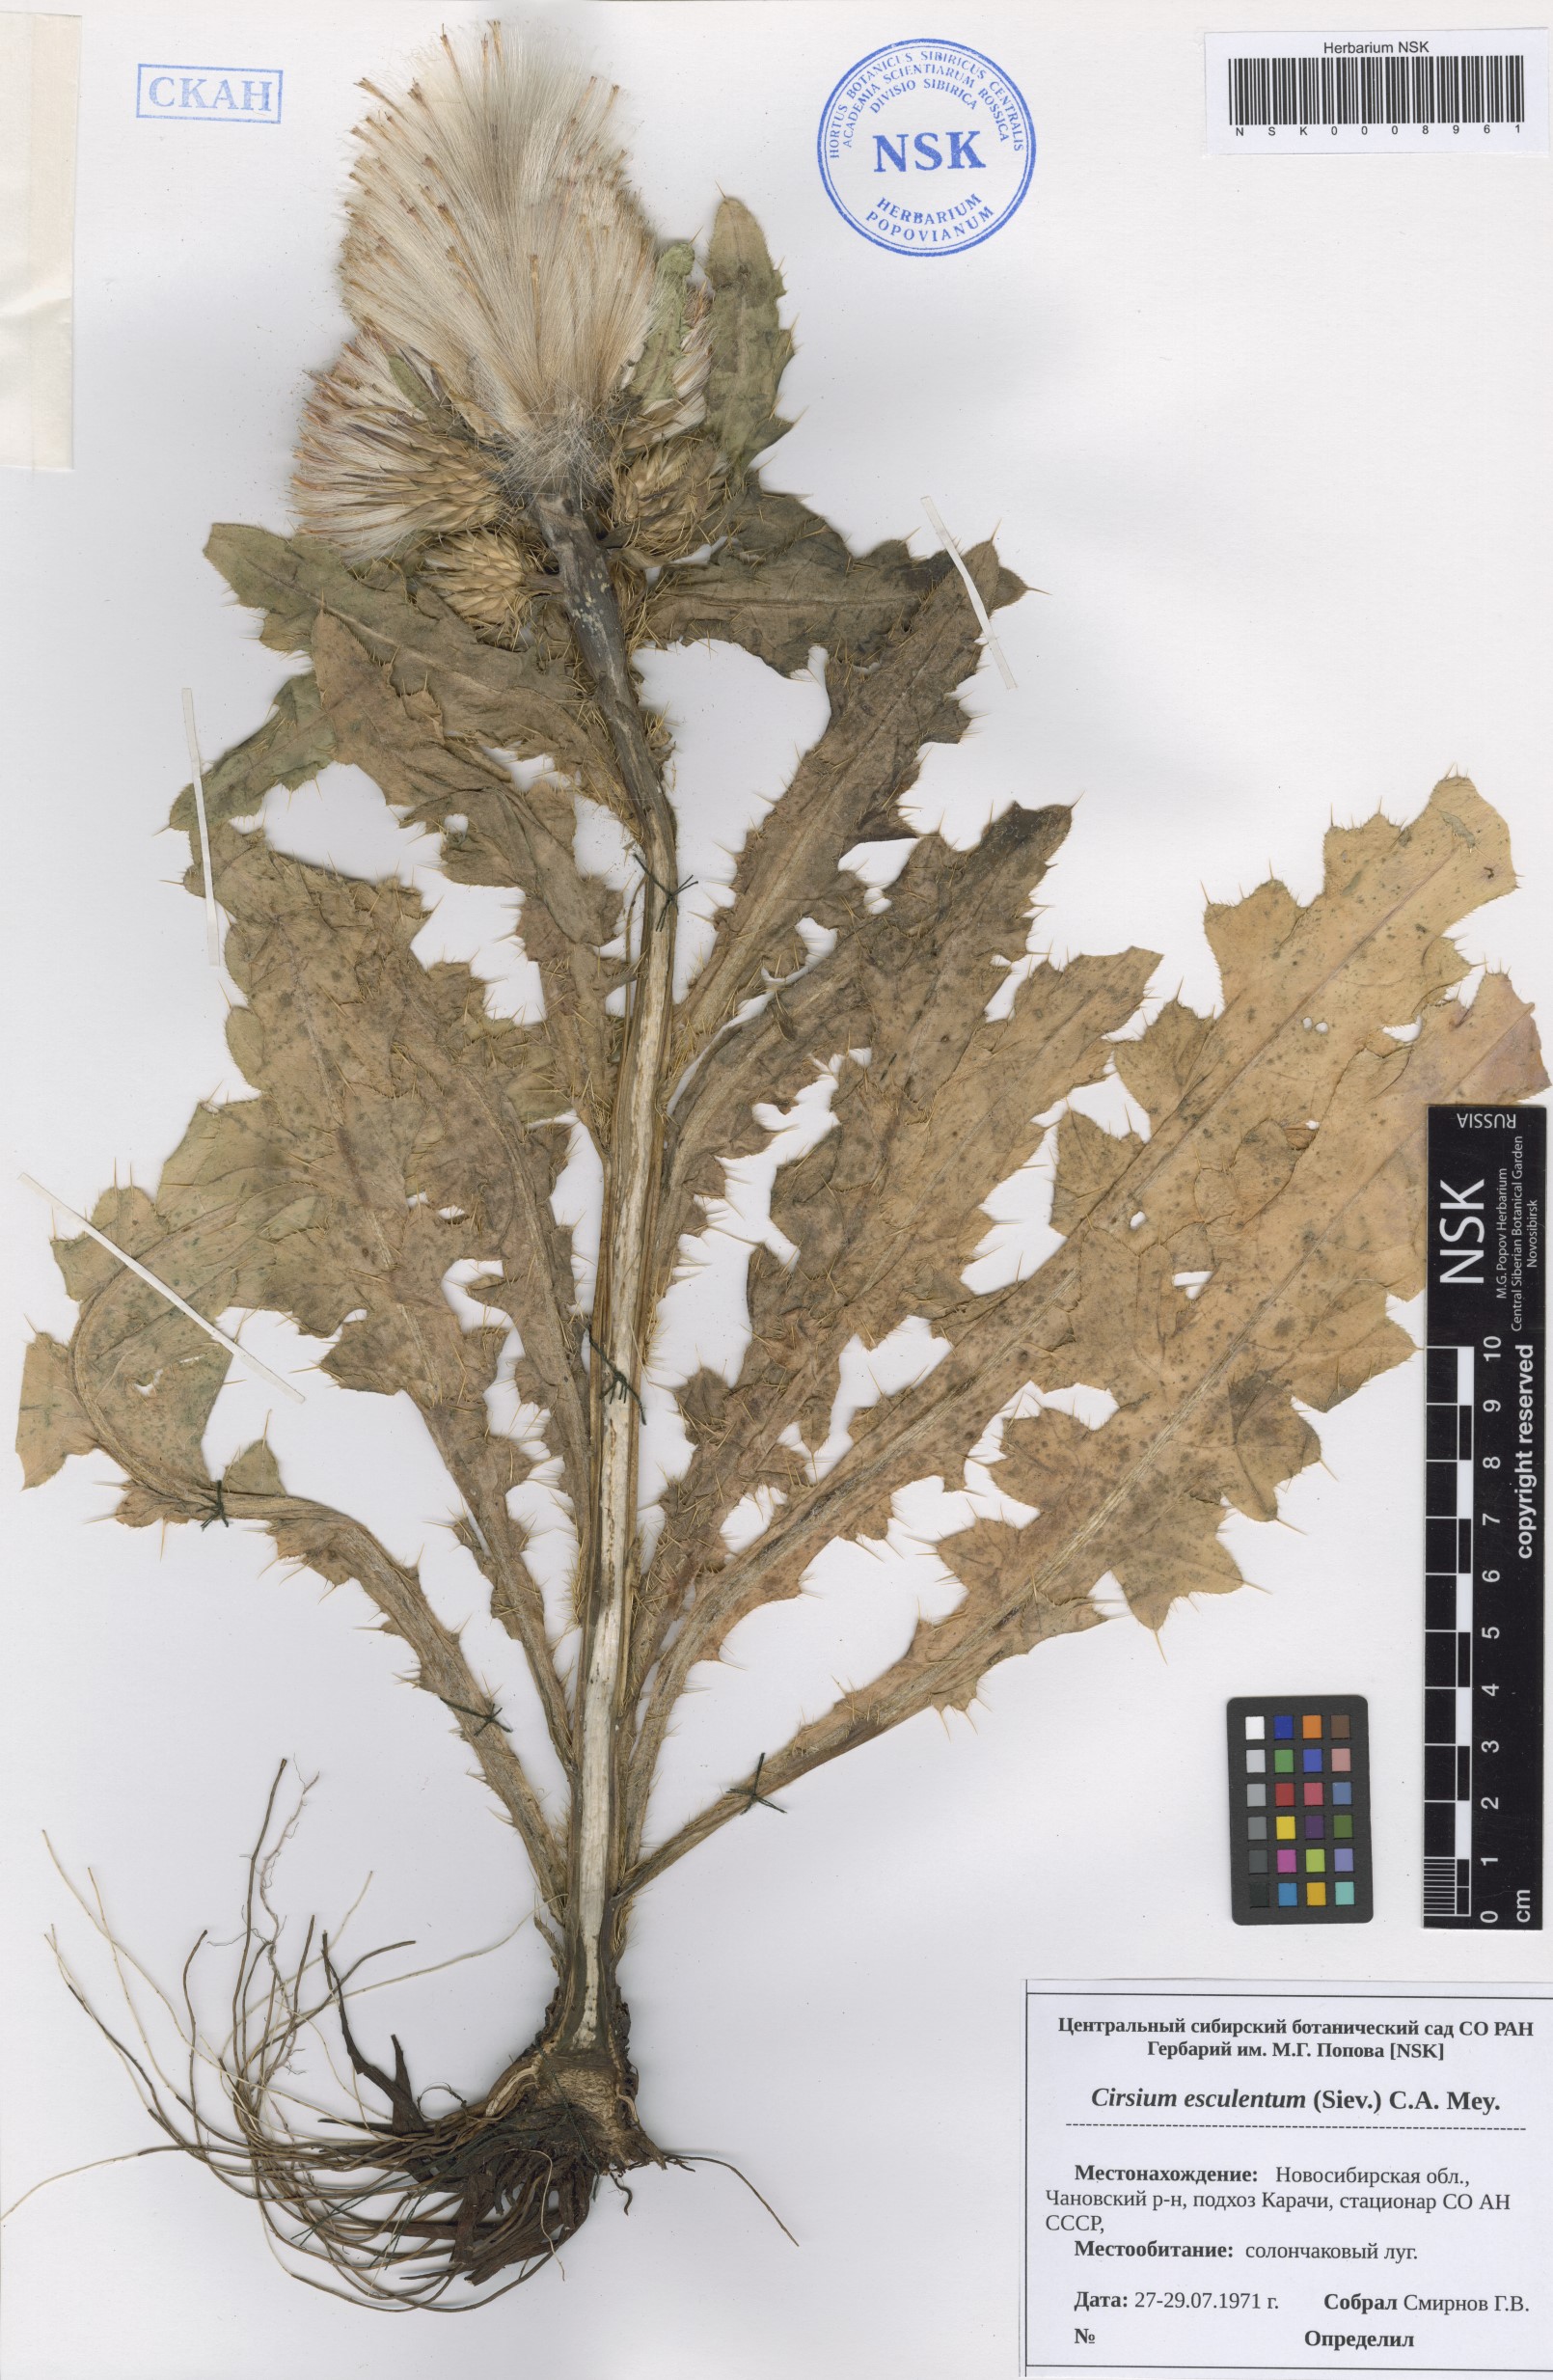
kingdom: Plantae
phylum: Tracheophyta
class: Magnoliopsida
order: Asterales
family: Asteraceae
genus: Cirsium
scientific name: Cirsium esculentum
